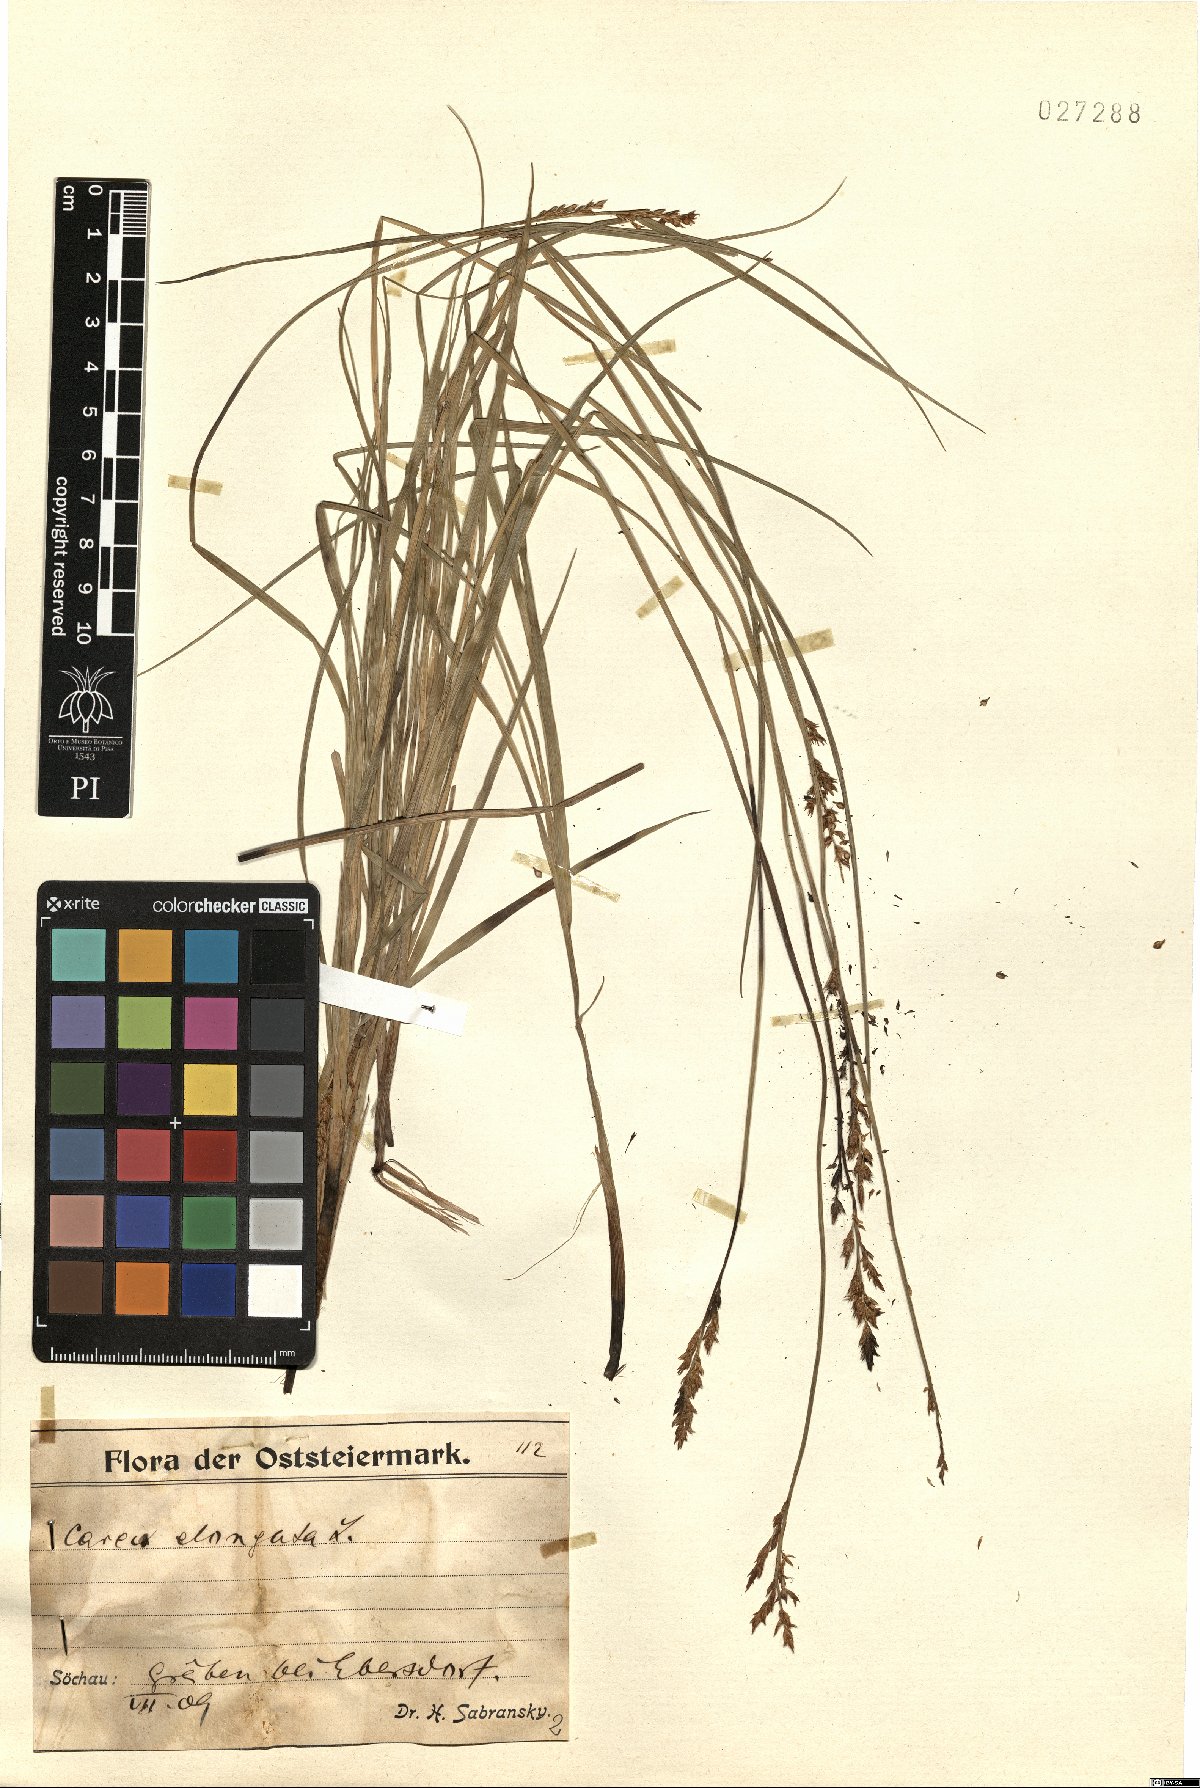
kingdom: Plantae
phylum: Tracheophyta
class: Liliopsida
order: Poales
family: Cyperaceae
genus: Carex
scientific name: Carex elongata
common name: Elongated sedge
